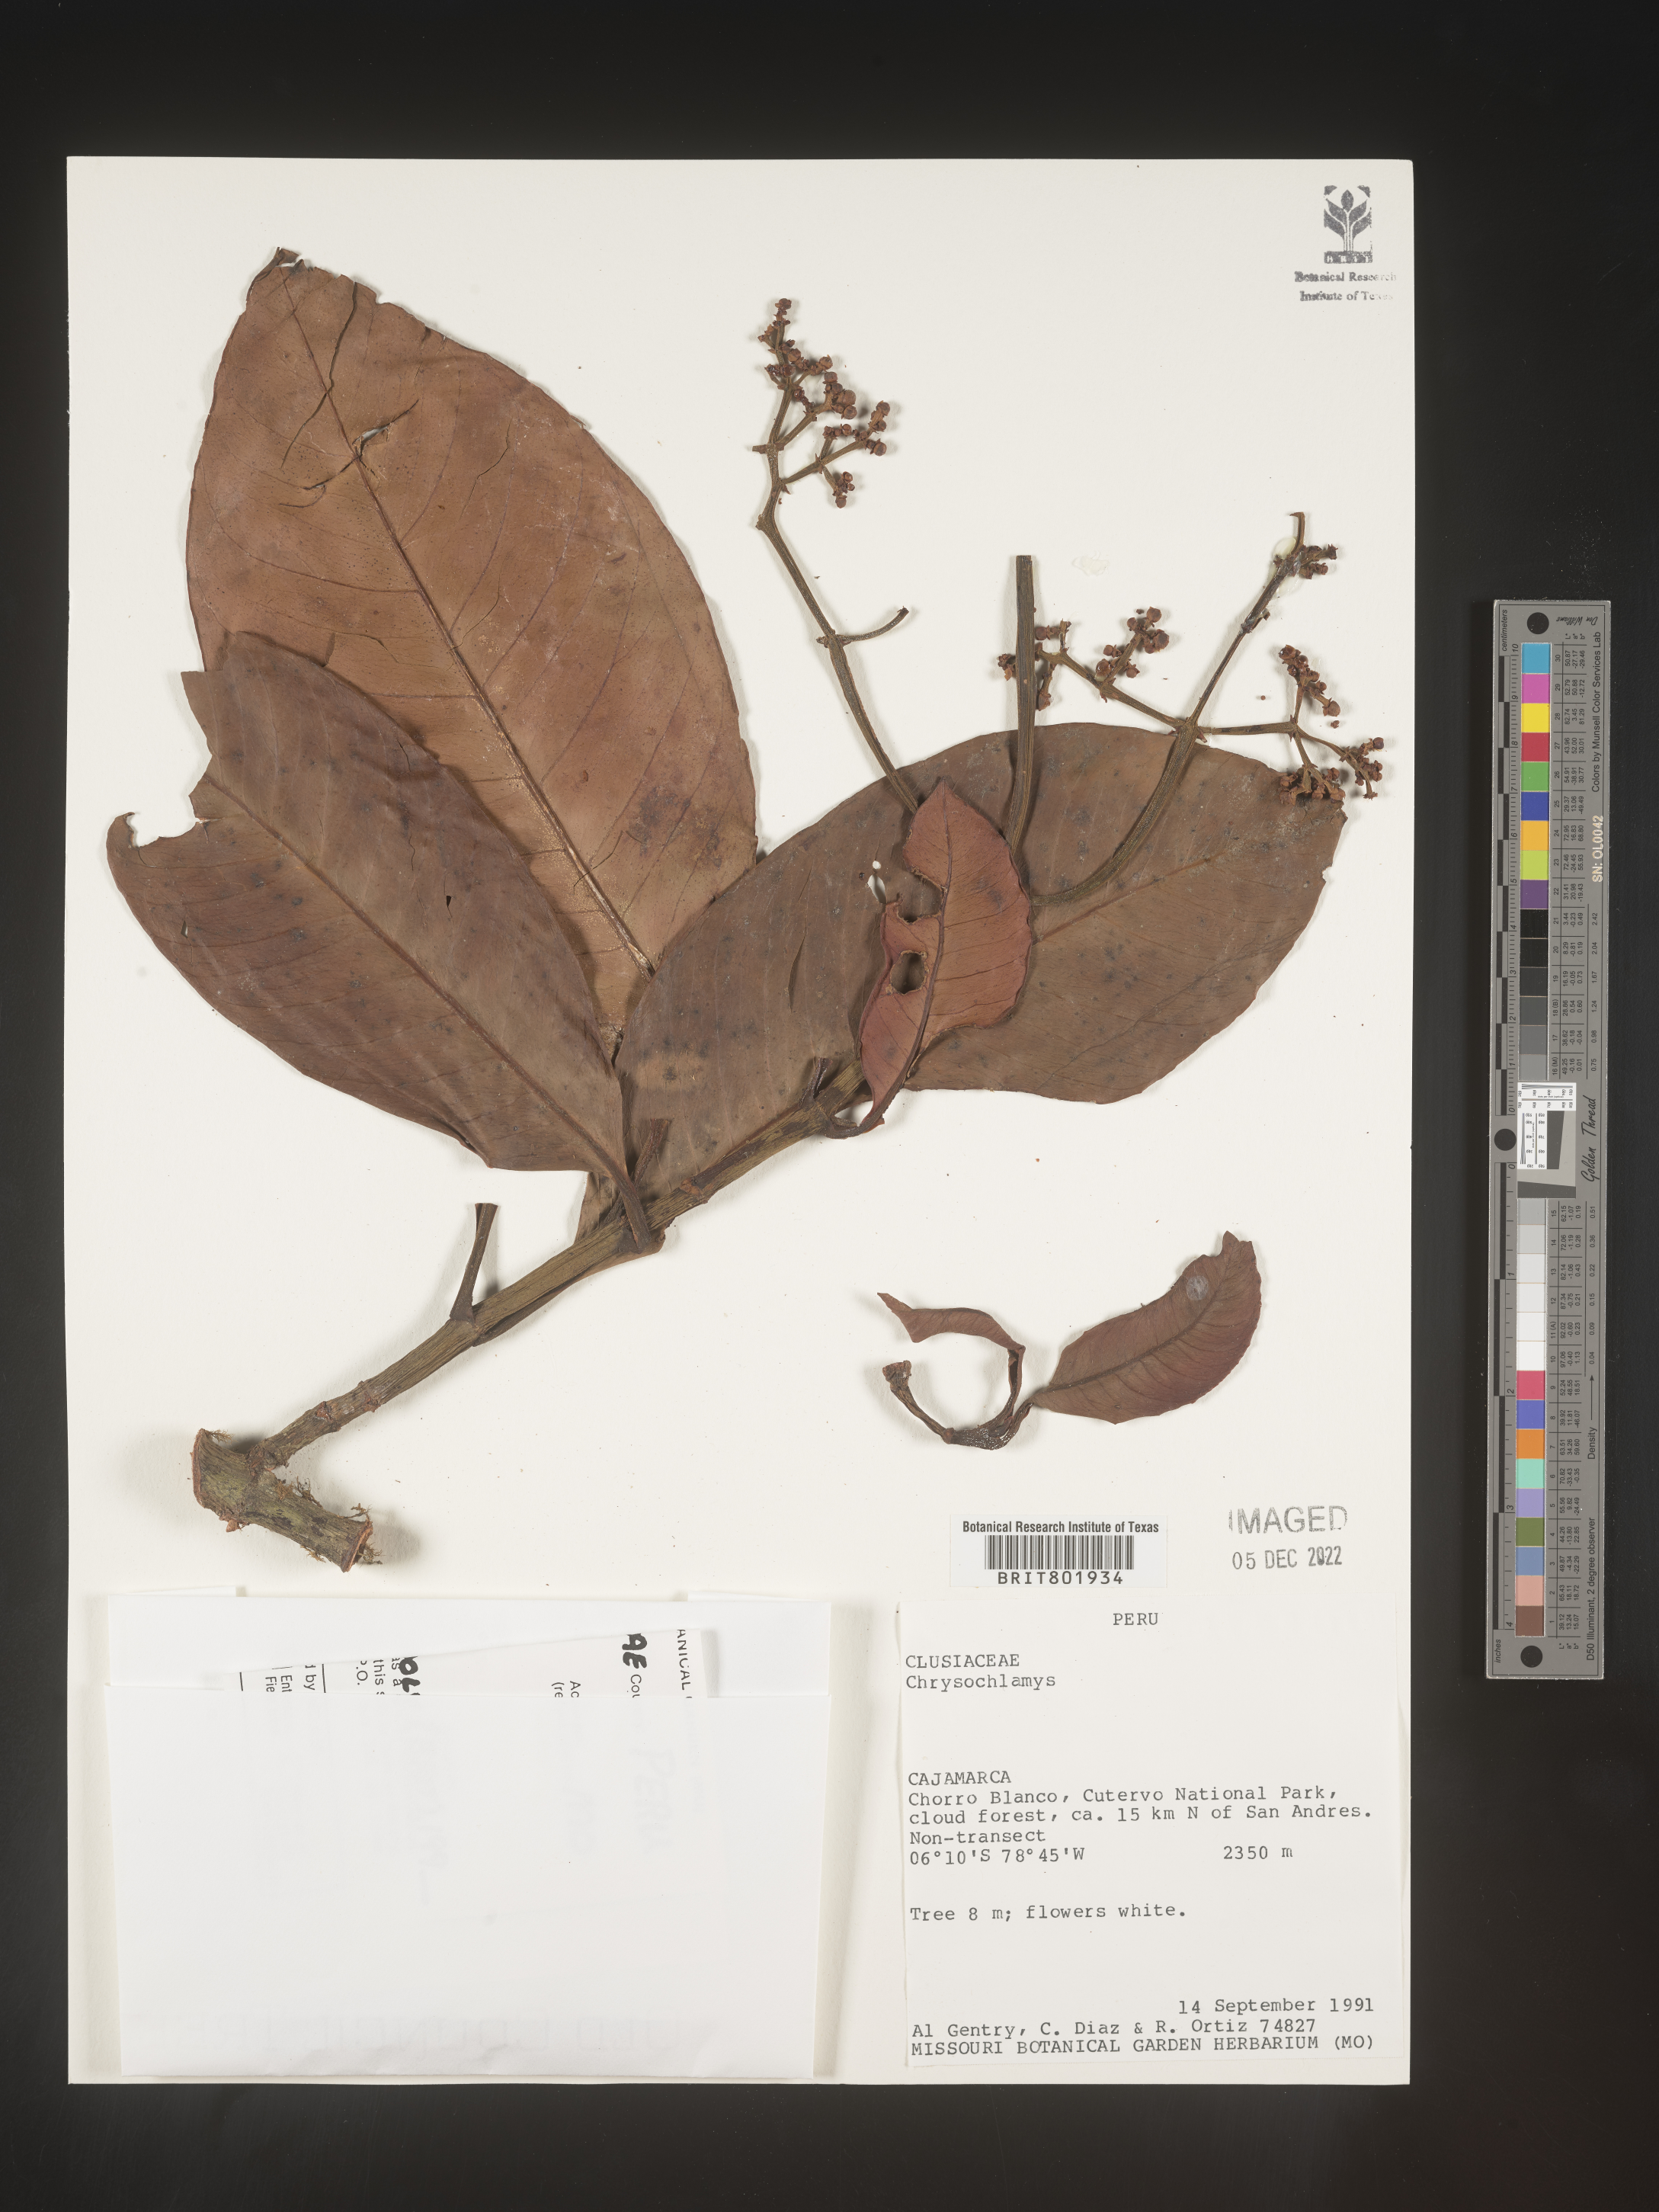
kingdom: Plantae
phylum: Tracheophyta
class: Magnoliopsida
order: Malpighiales
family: Clusiaceae
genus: Chrysochlamys
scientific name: Chrysochlamys
